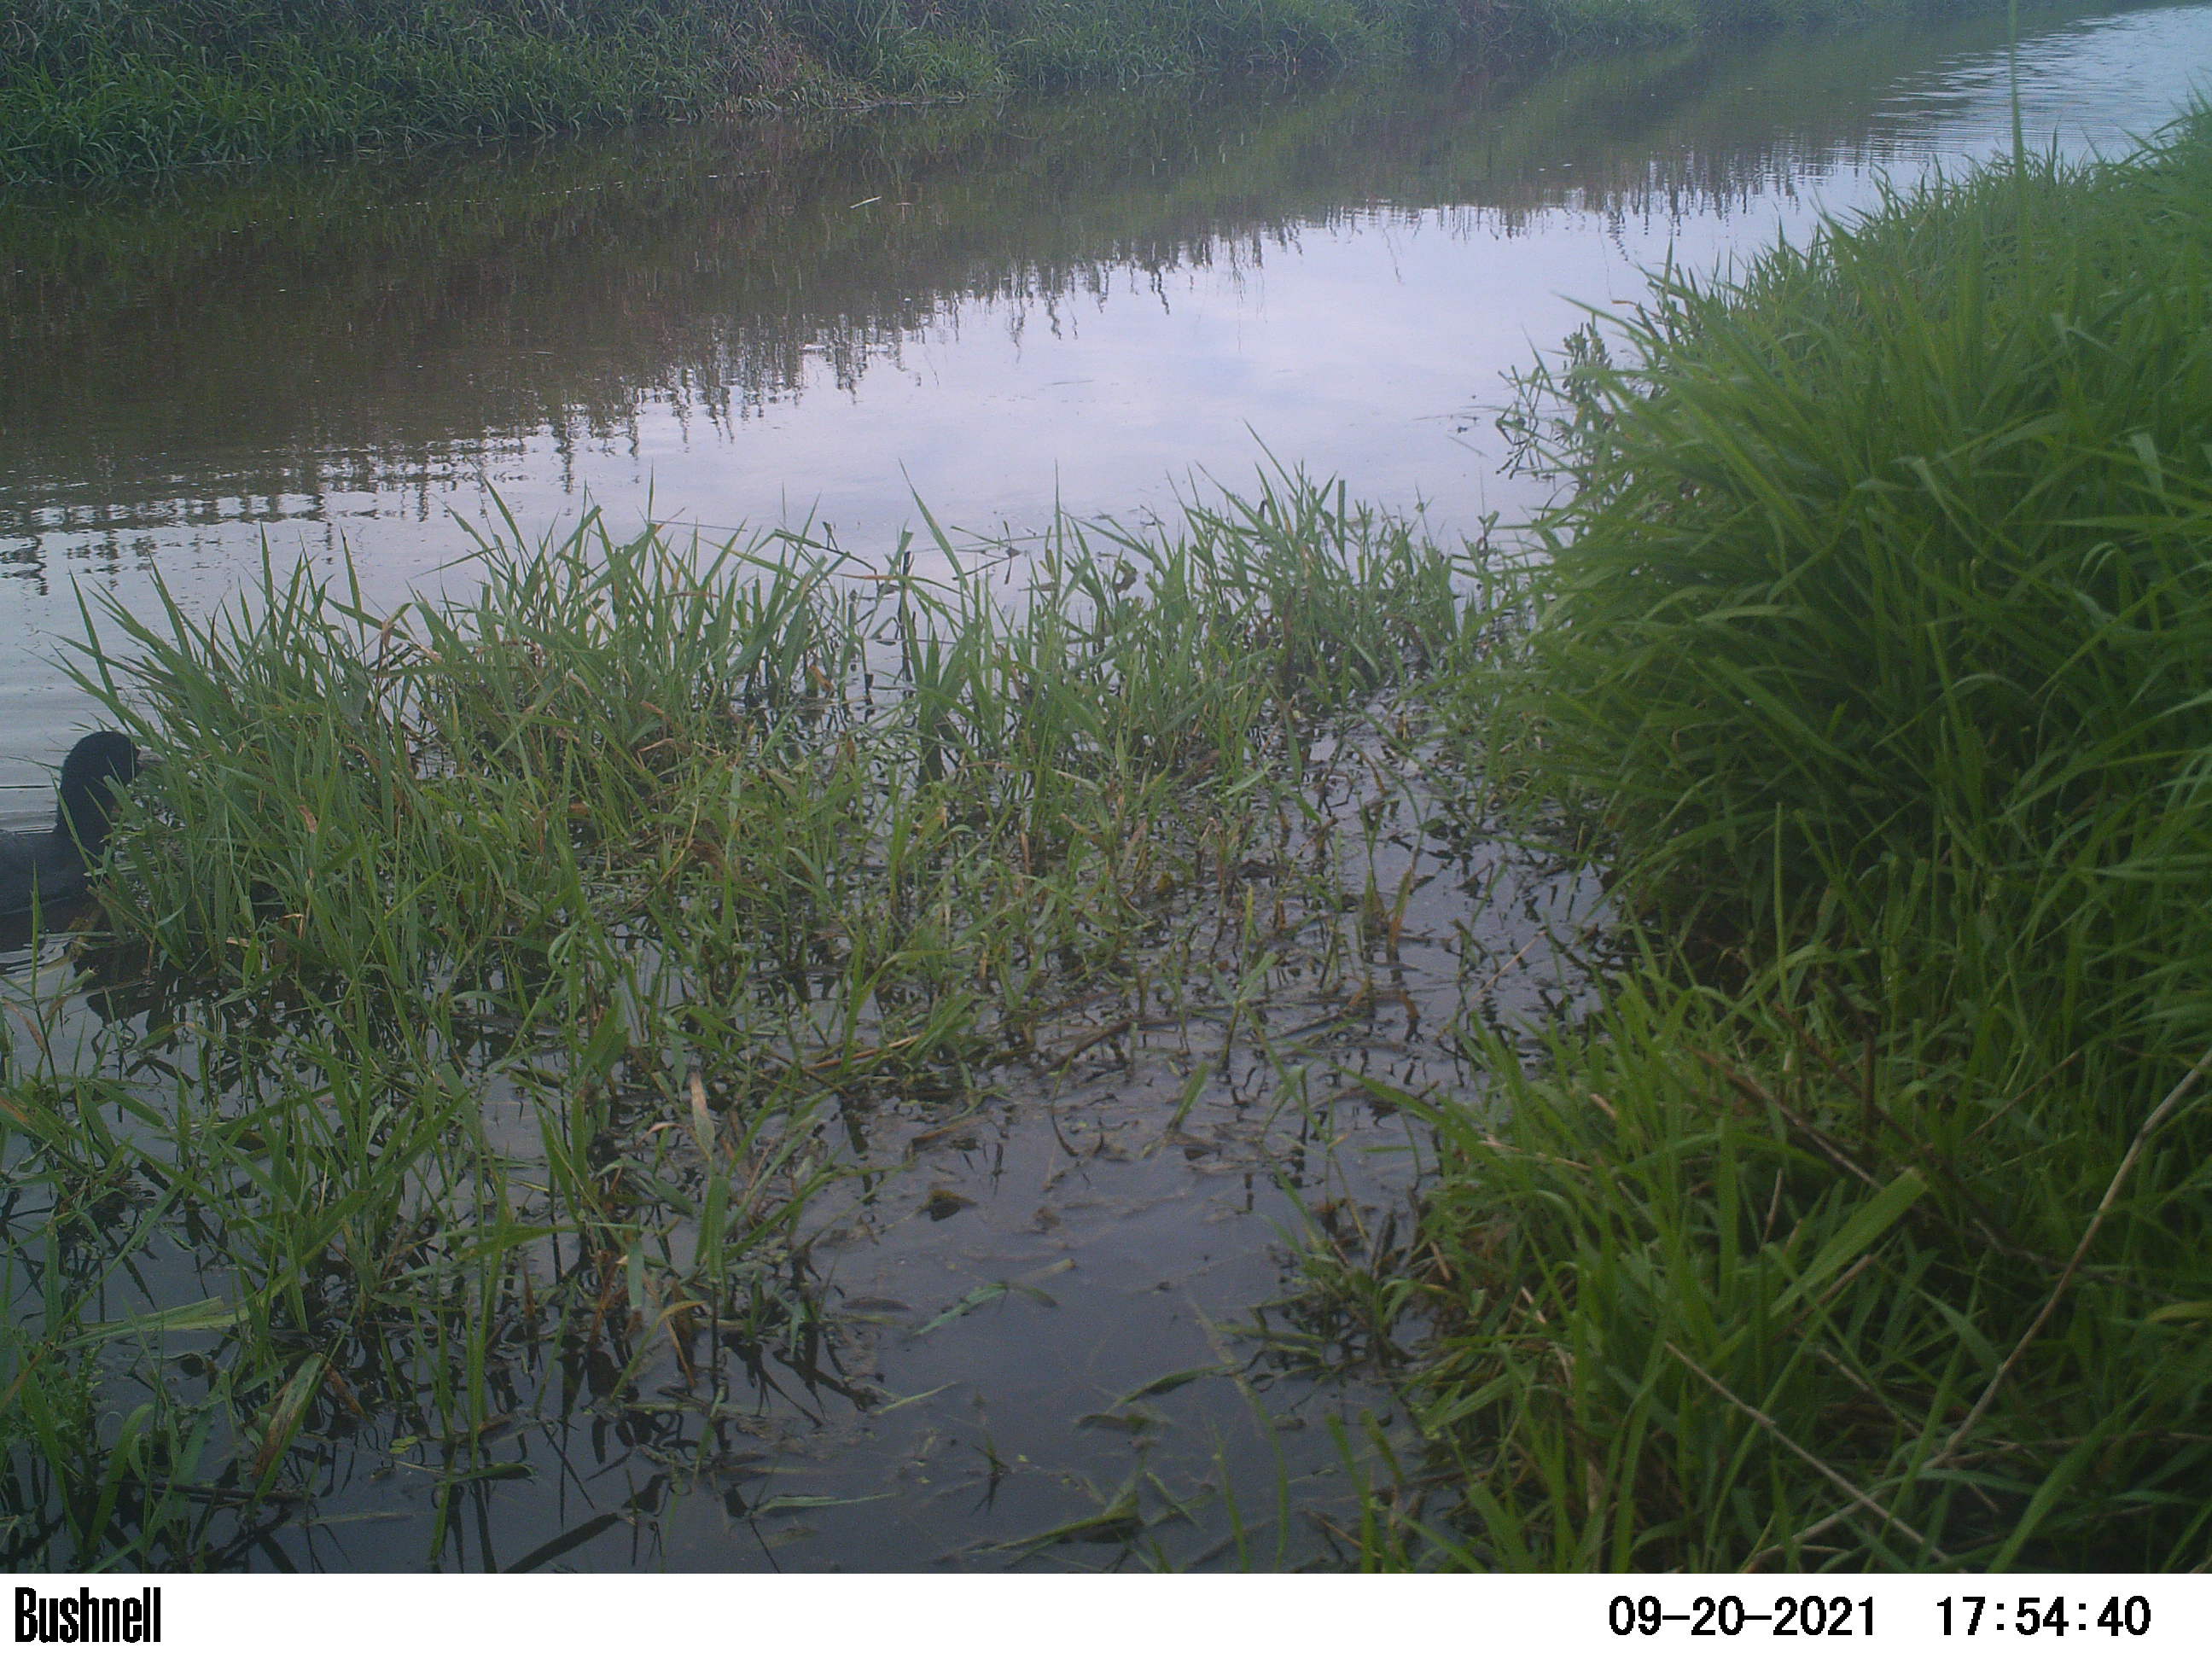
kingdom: Animalia
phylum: Chordata
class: Aves
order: Gruiformes
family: Rallidae
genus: Fulica
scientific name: Fulica atra
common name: Eurasian coot
